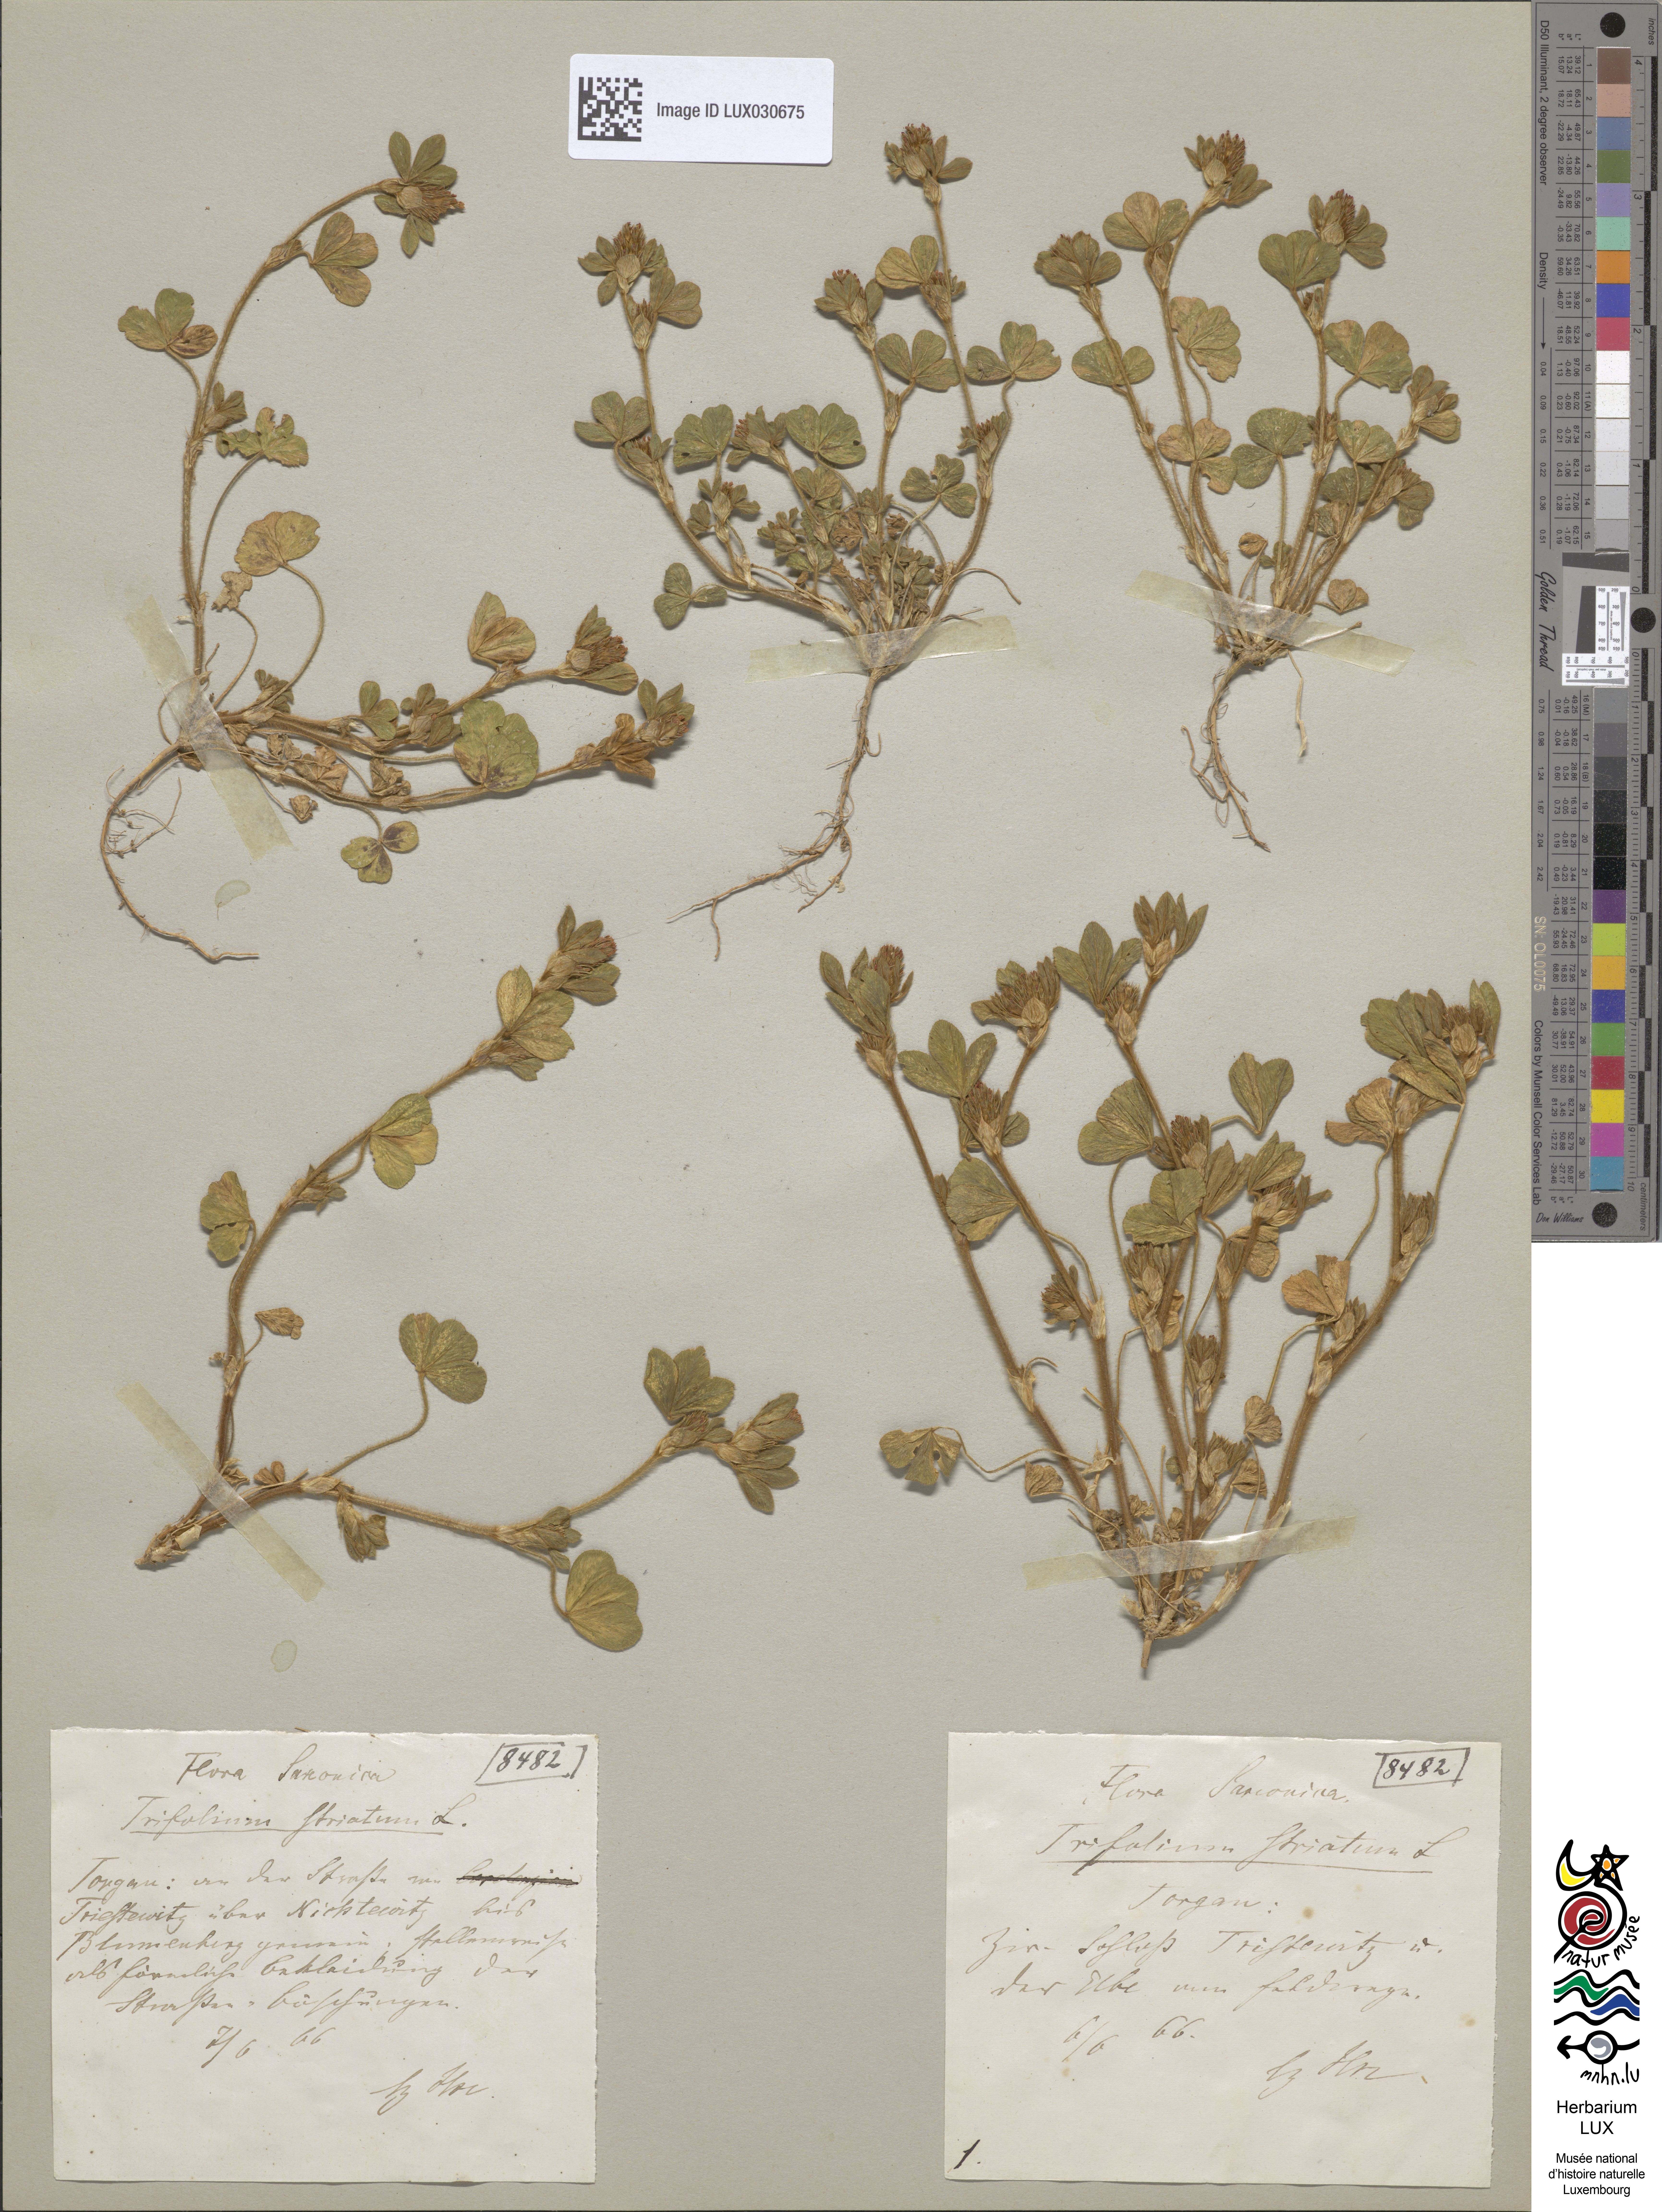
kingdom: Plantae
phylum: Tracheophyta
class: Magnoliopsida
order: Fabales
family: Fabaceae
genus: Trifolium
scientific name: Trifolium striatum
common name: Knotted clover
